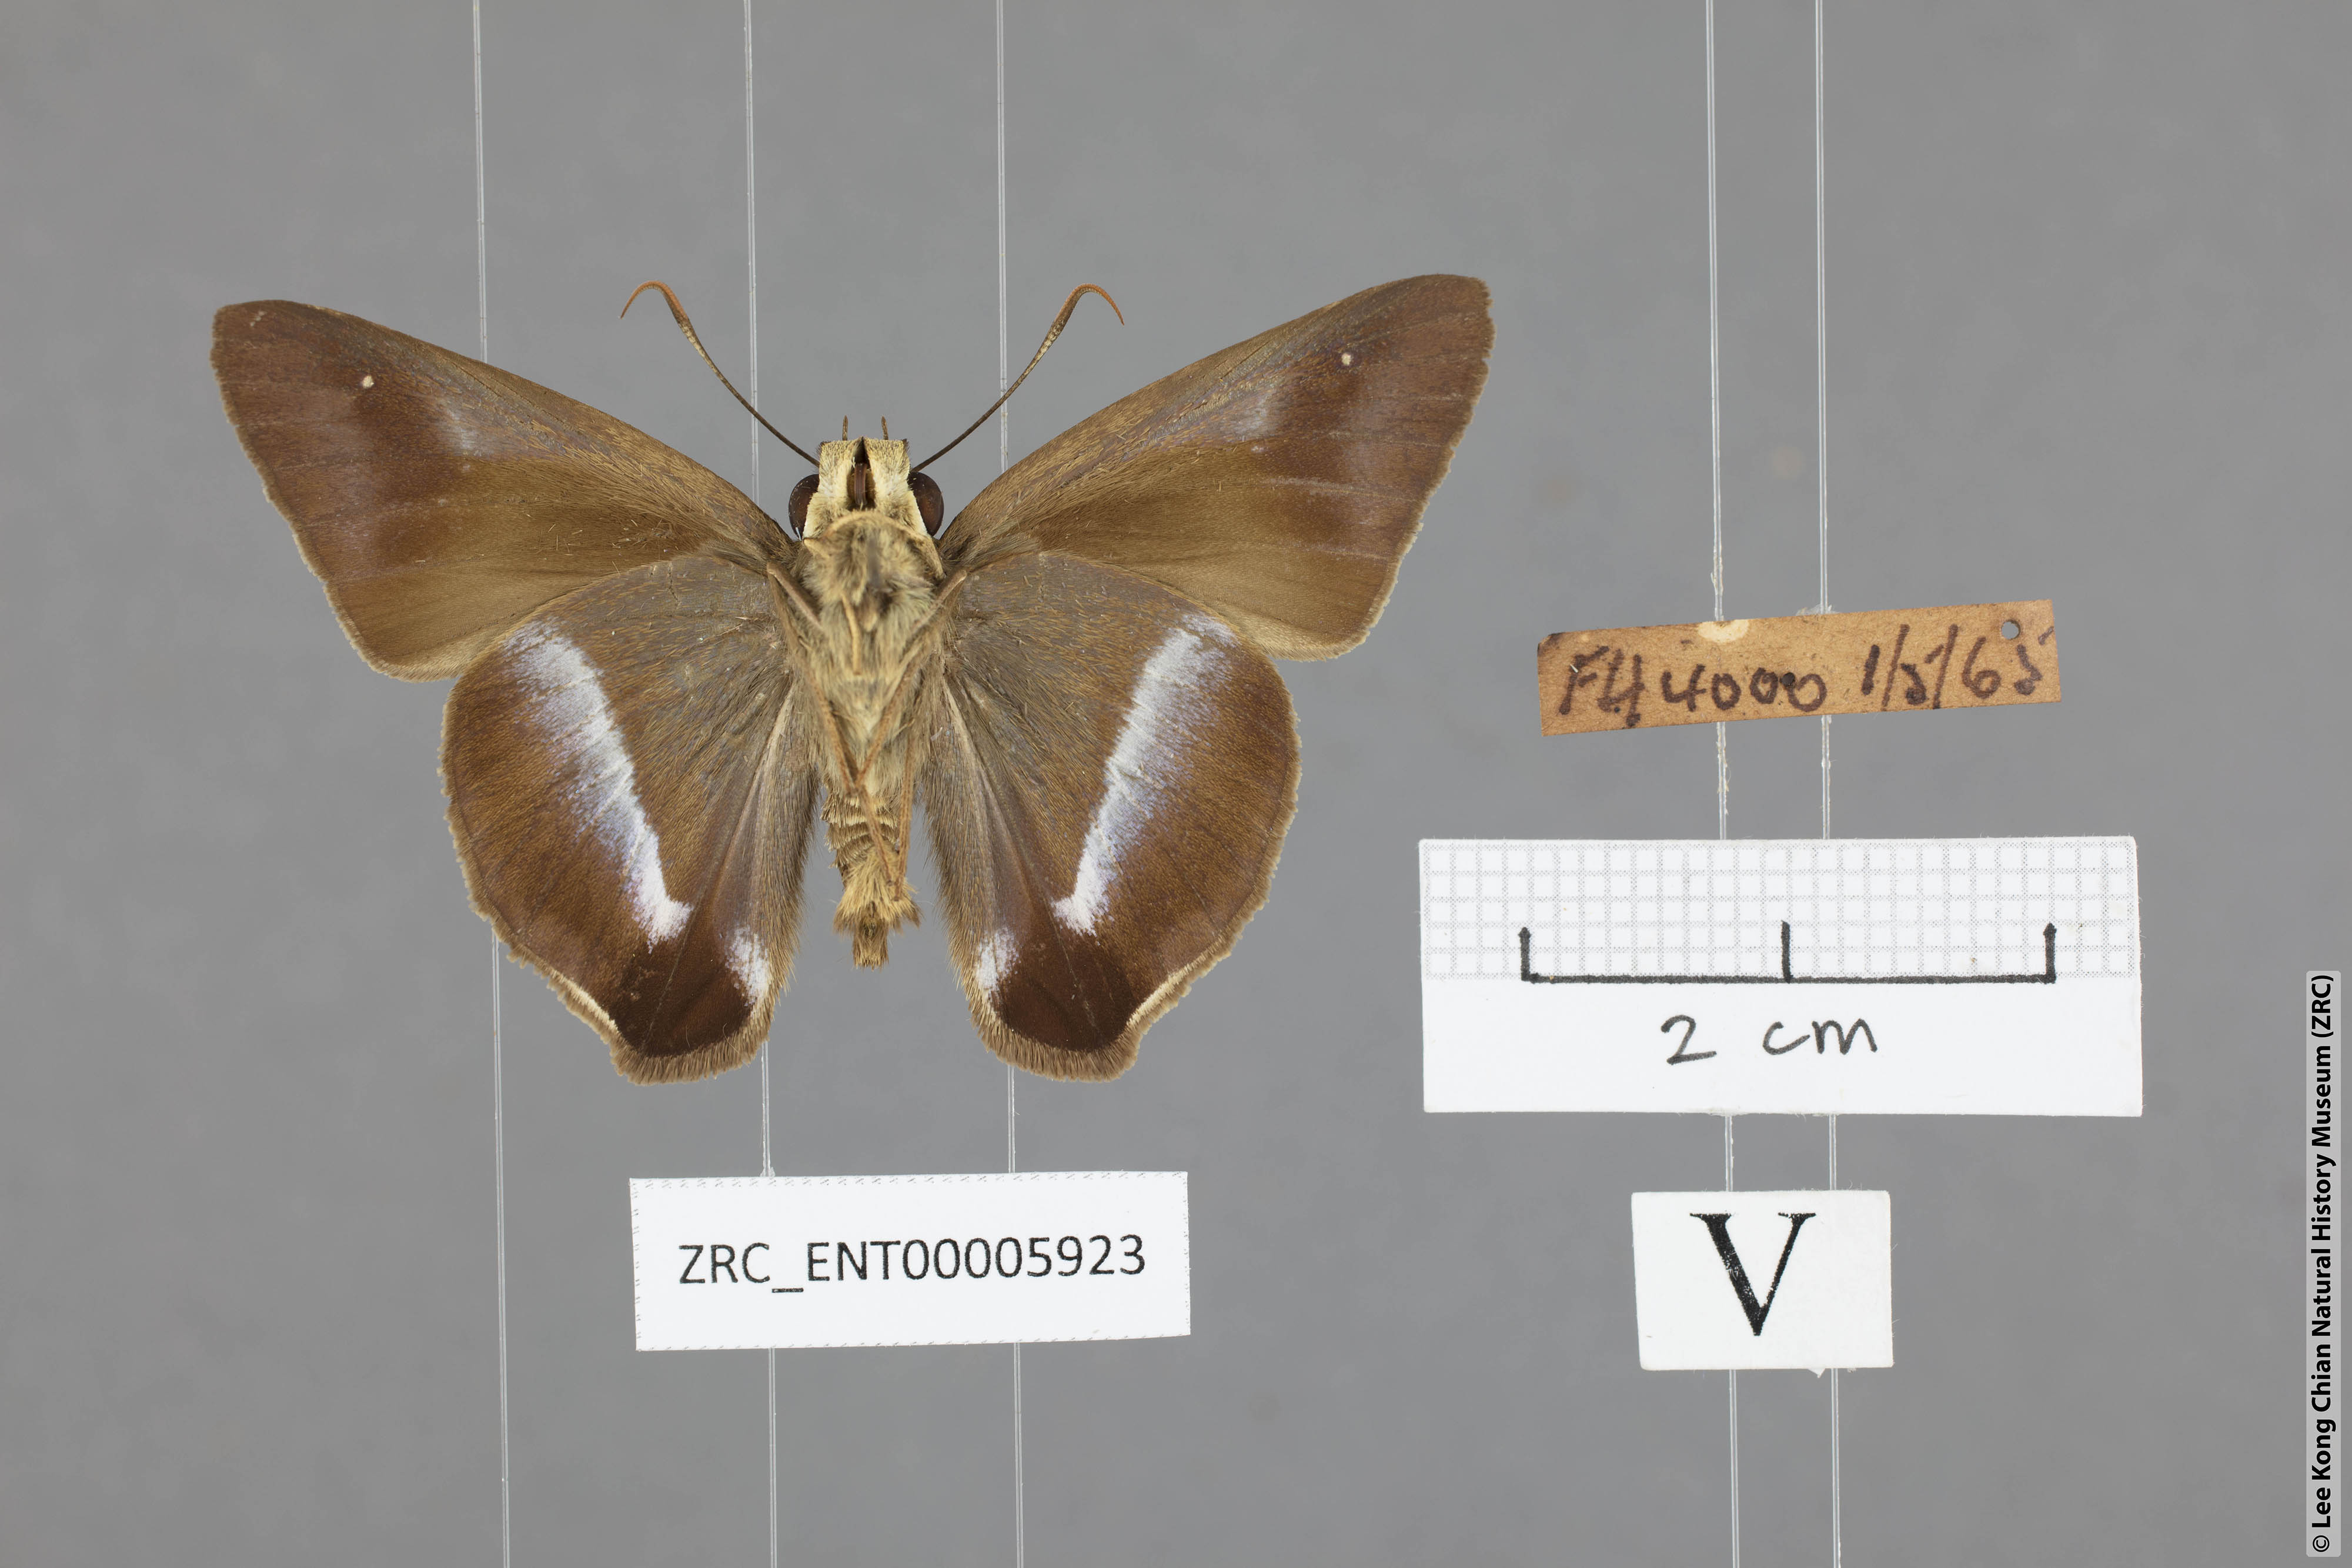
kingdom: Animalia
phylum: Arthropoda
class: Insecta
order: Lepidoptera
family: Hesperiidae
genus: Hasora
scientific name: Hasora vitta
